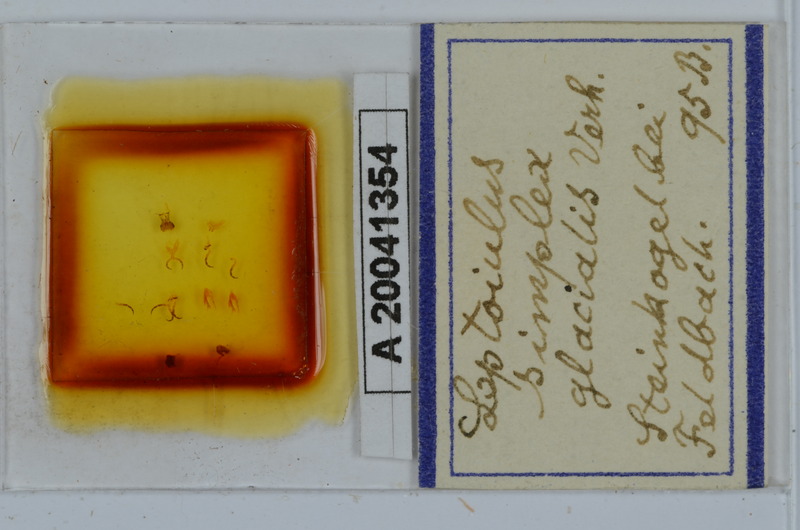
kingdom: Animalia
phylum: Arthropoda
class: Diplopoda
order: Julida
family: Julidae
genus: Leptoiulus
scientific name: Leptoiulus simplex
